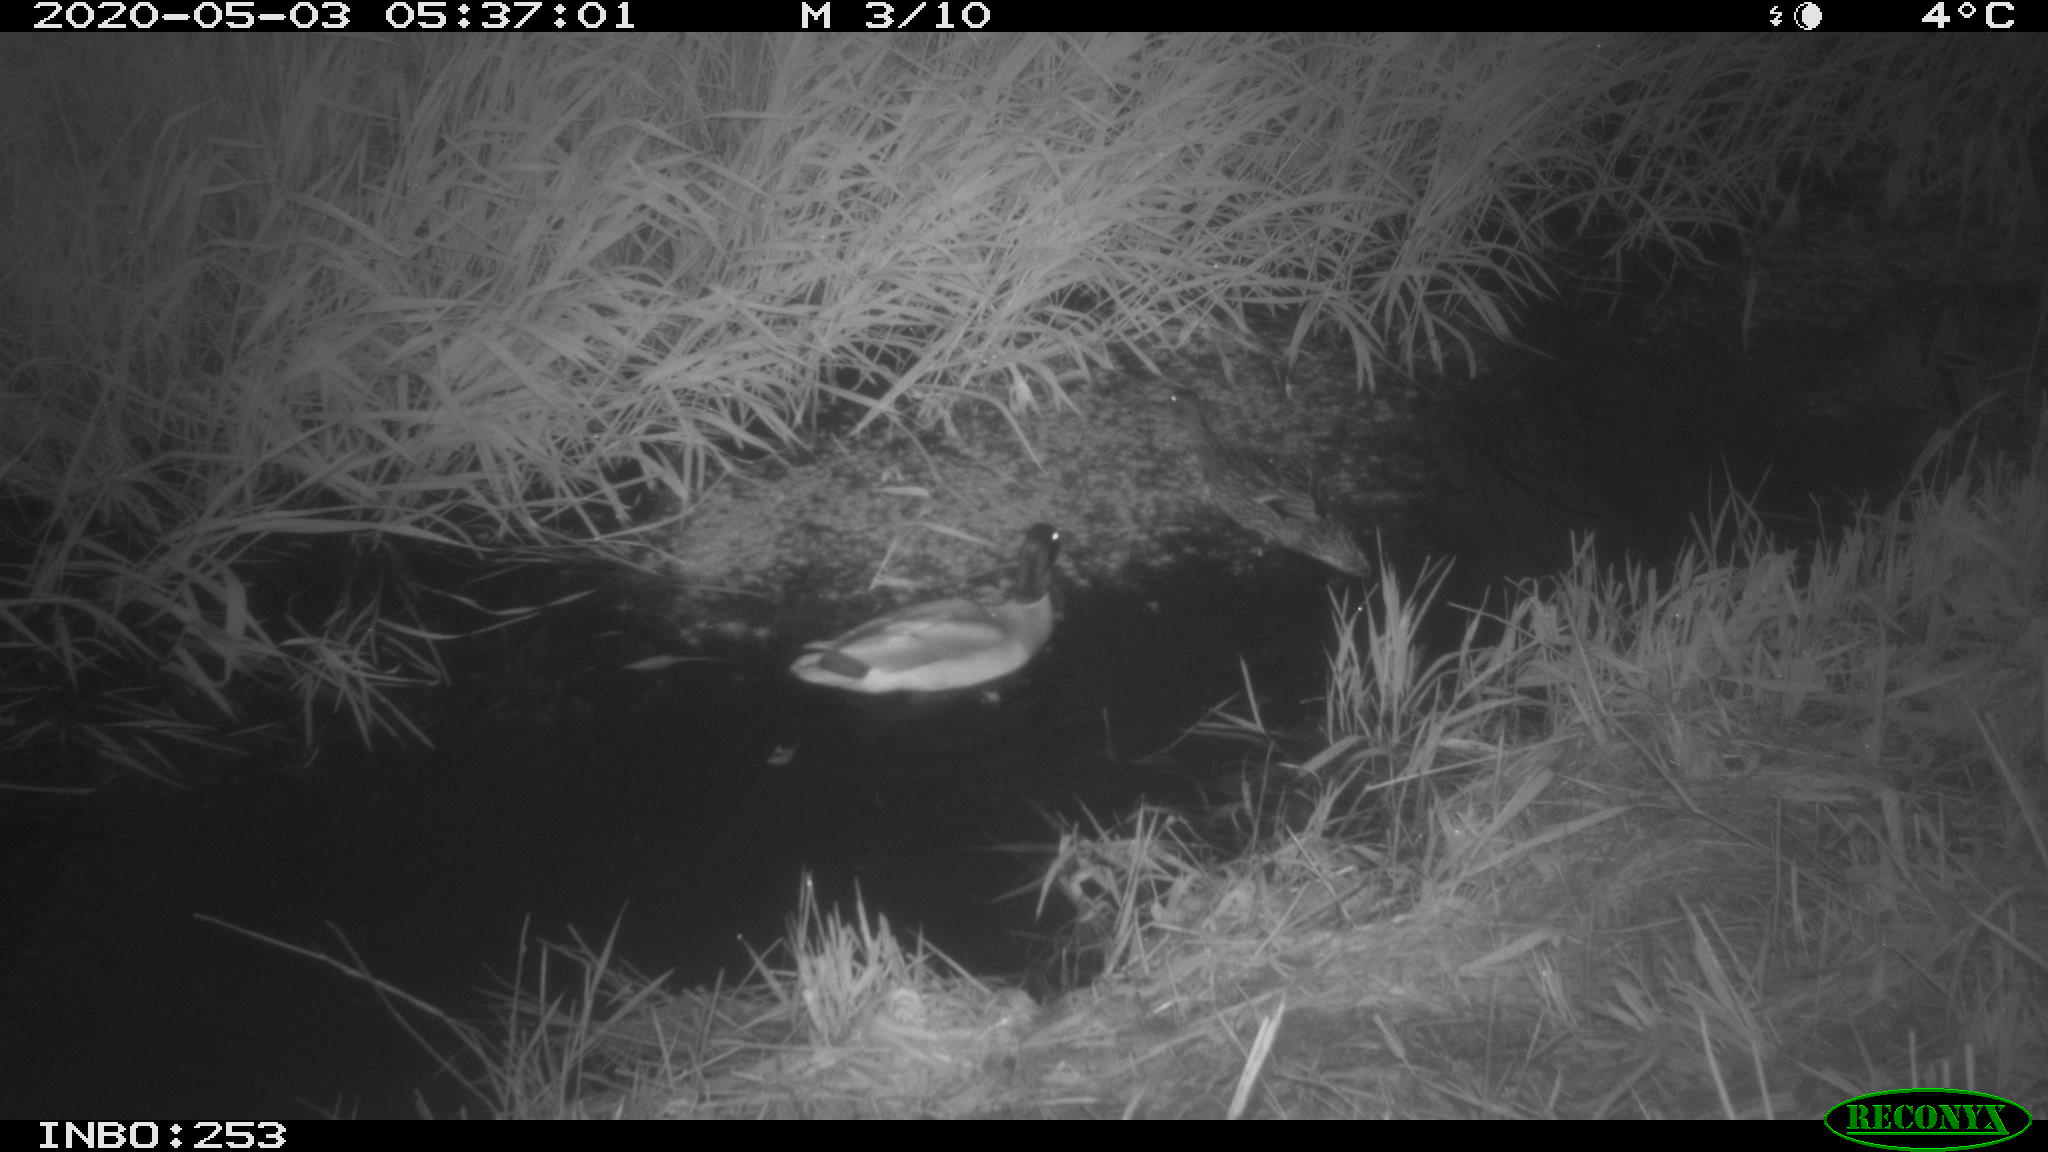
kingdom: Animalia
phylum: Chordata
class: Aves
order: Anseriformes
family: Anatidae
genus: Anas
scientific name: Anas platyrhynchos
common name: Mallard
